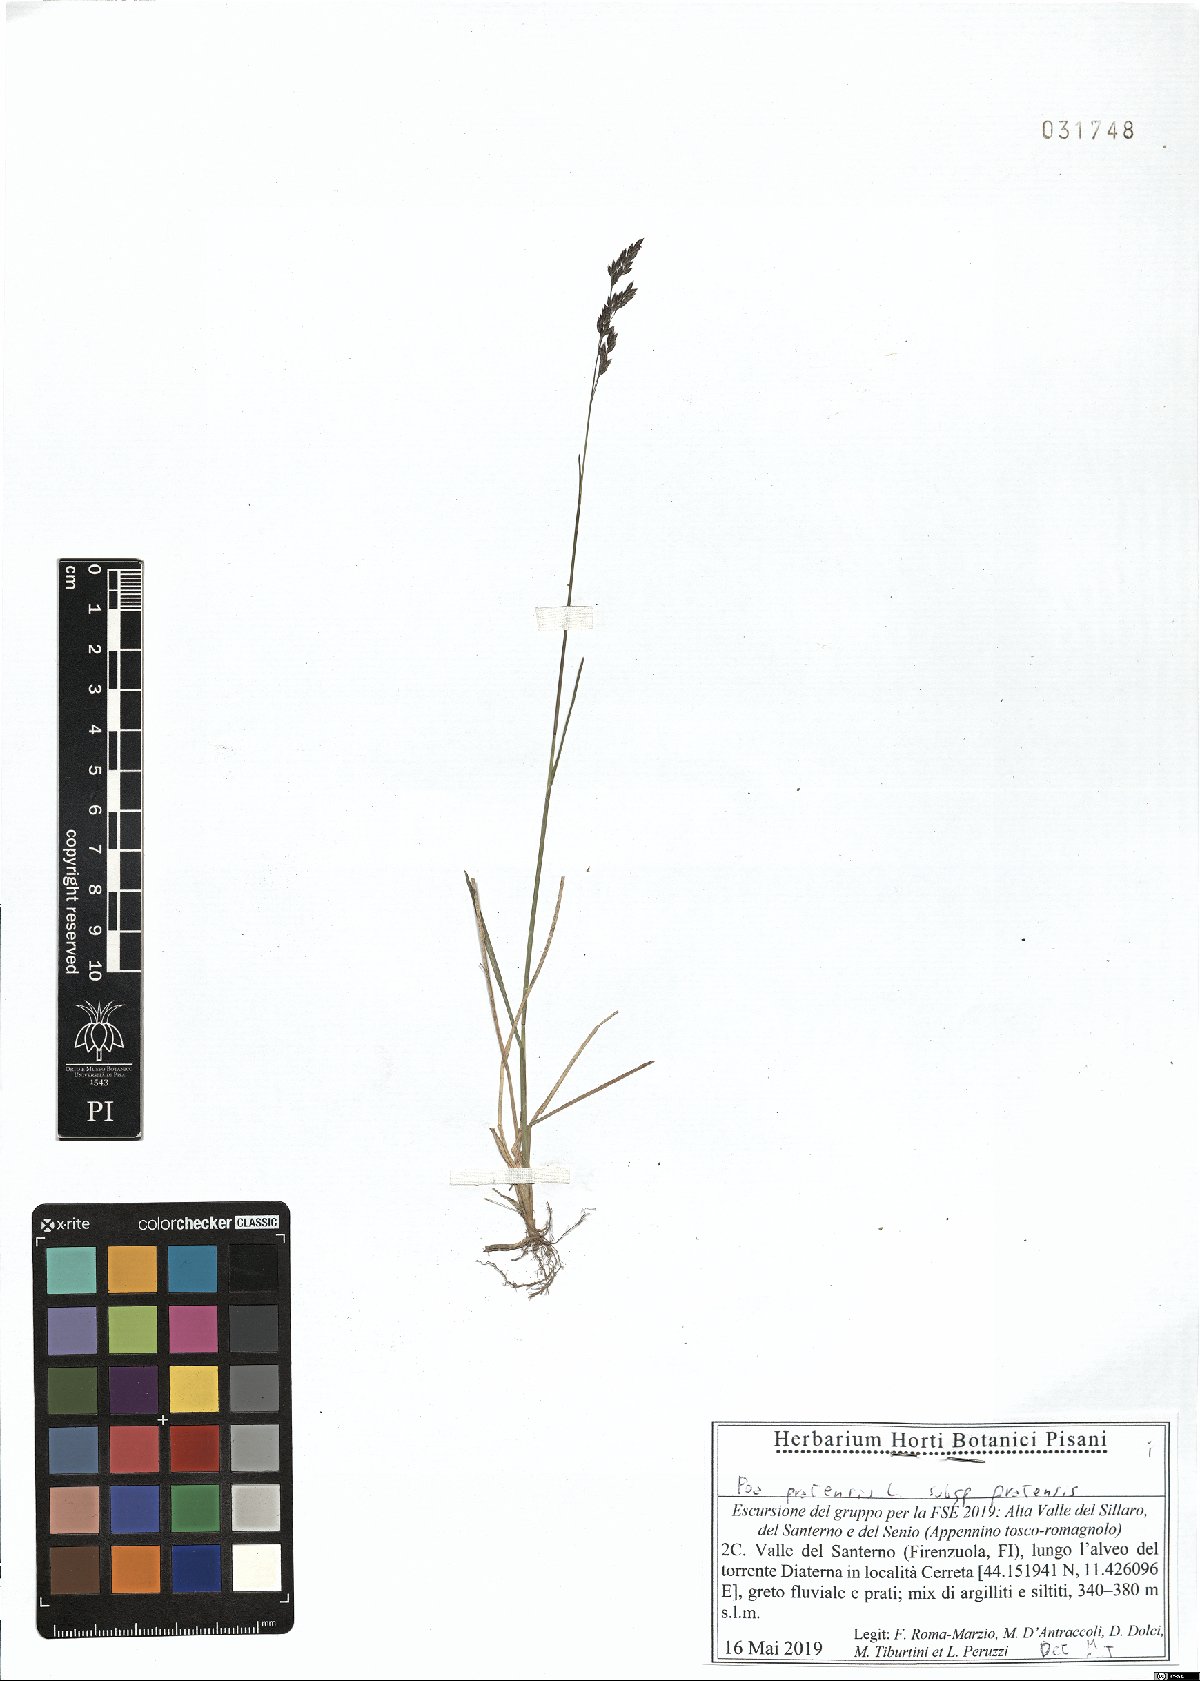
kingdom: Plantae
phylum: Tracheophyta
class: Liliopsida
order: Poales
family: Poaceae
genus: Poa
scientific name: Poa pratensis
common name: Kentucky bluegrass
